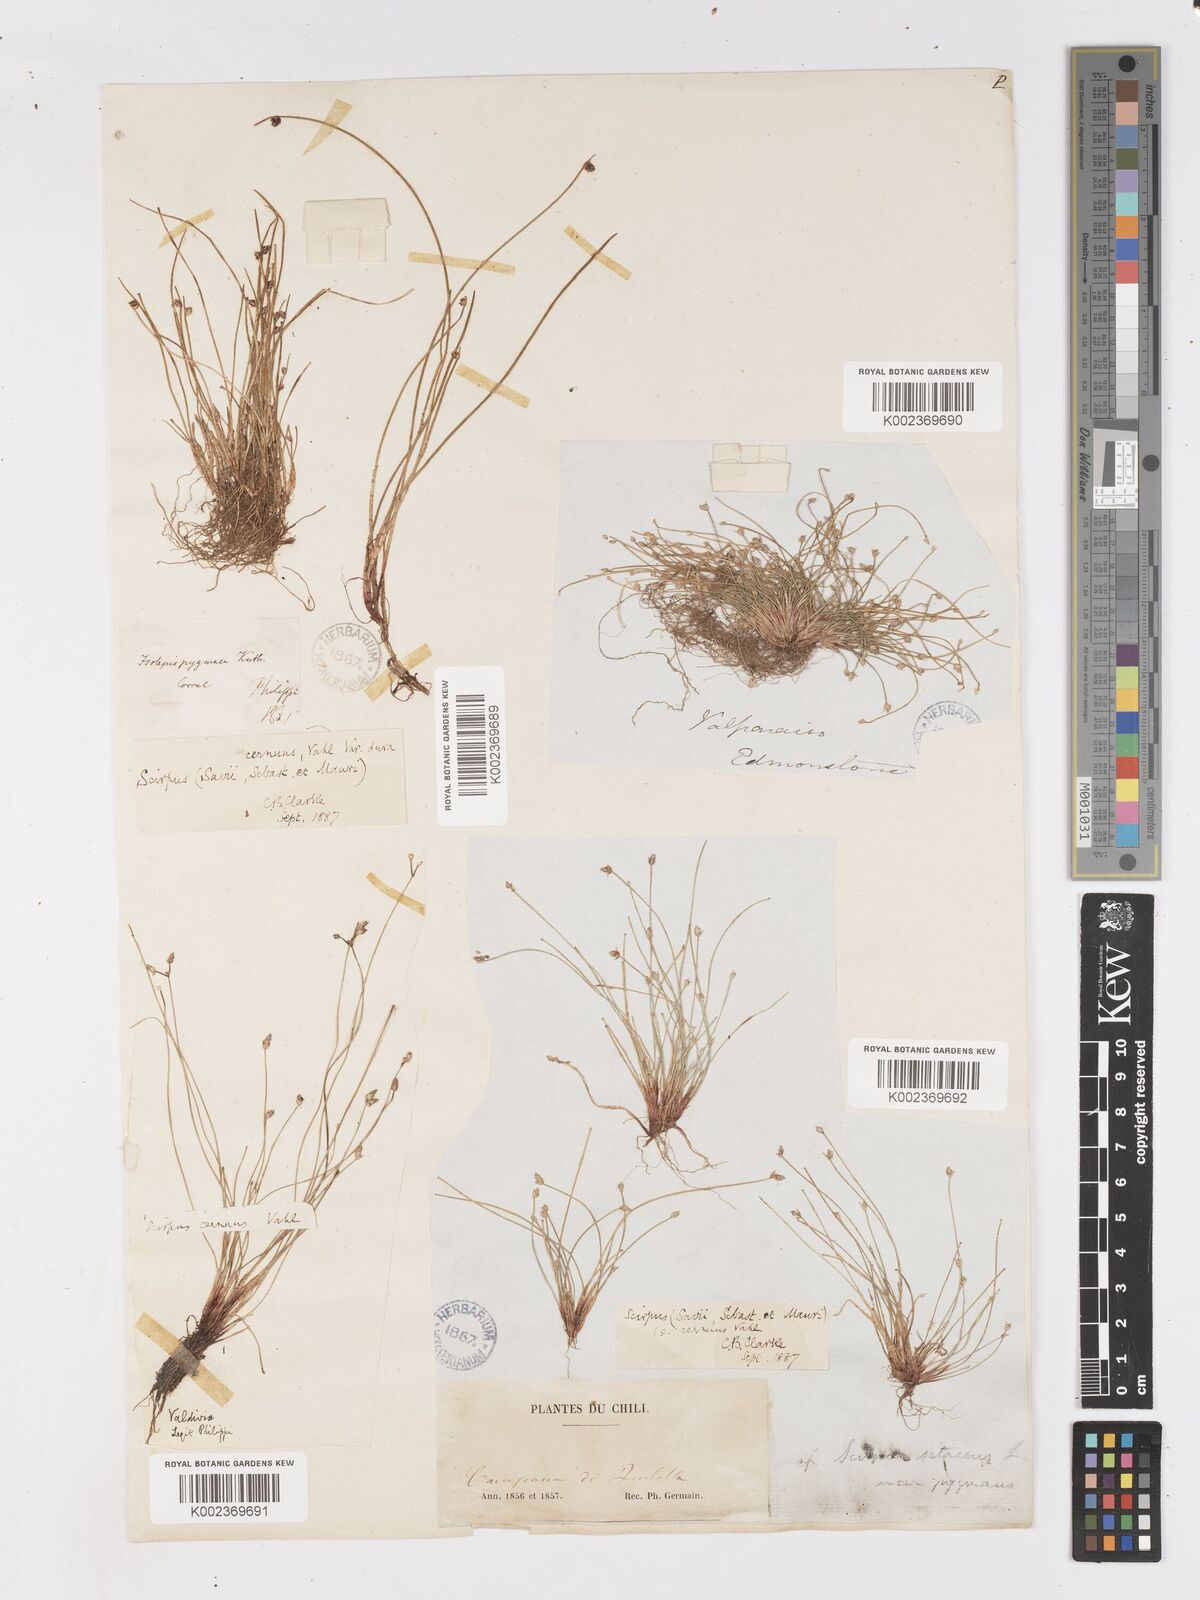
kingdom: Plantae
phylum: Tracheophyta
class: Liliopsida
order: Poales
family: Cyperaceae
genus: Isolepis
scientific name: Isolepis cernua
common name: Slender club-rush
